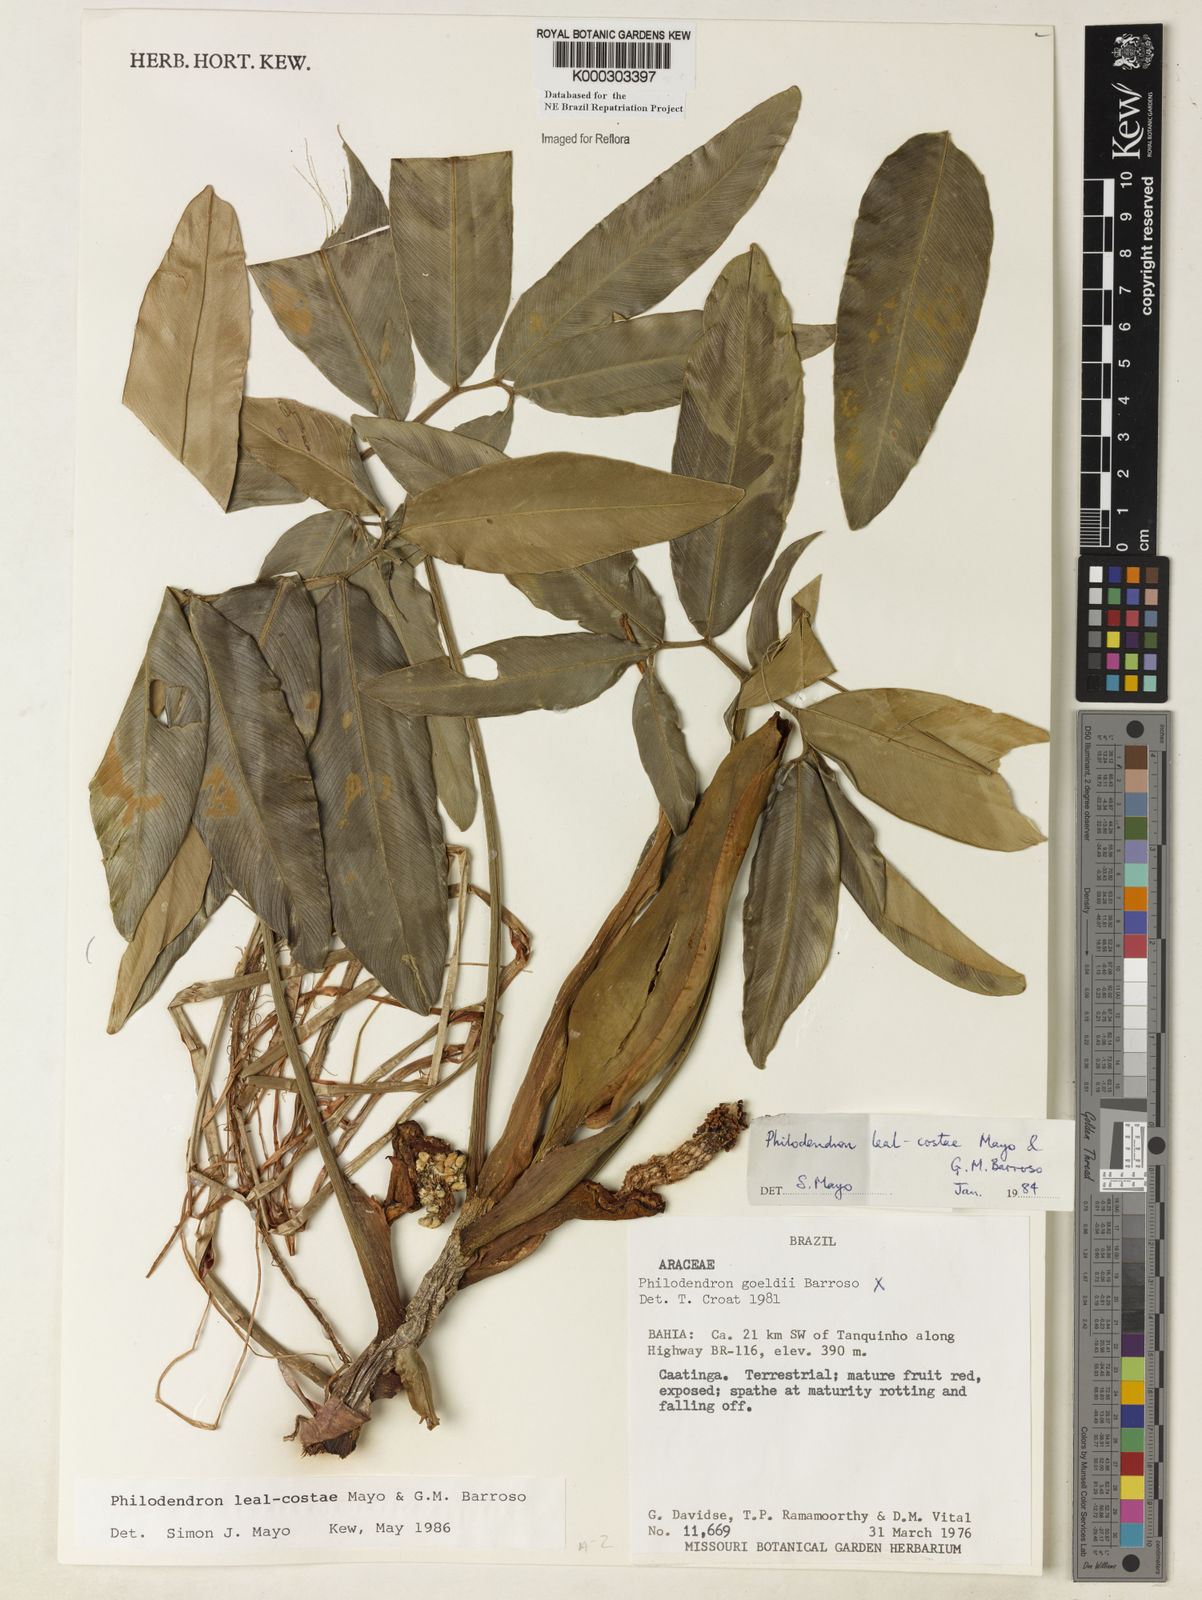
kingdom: Plantae
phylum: Tracheophyta
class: Liliopsida
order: Alismatales
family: Araceae
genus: Thaumatophyllum
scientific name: Thaumatophyllum leal-costae
